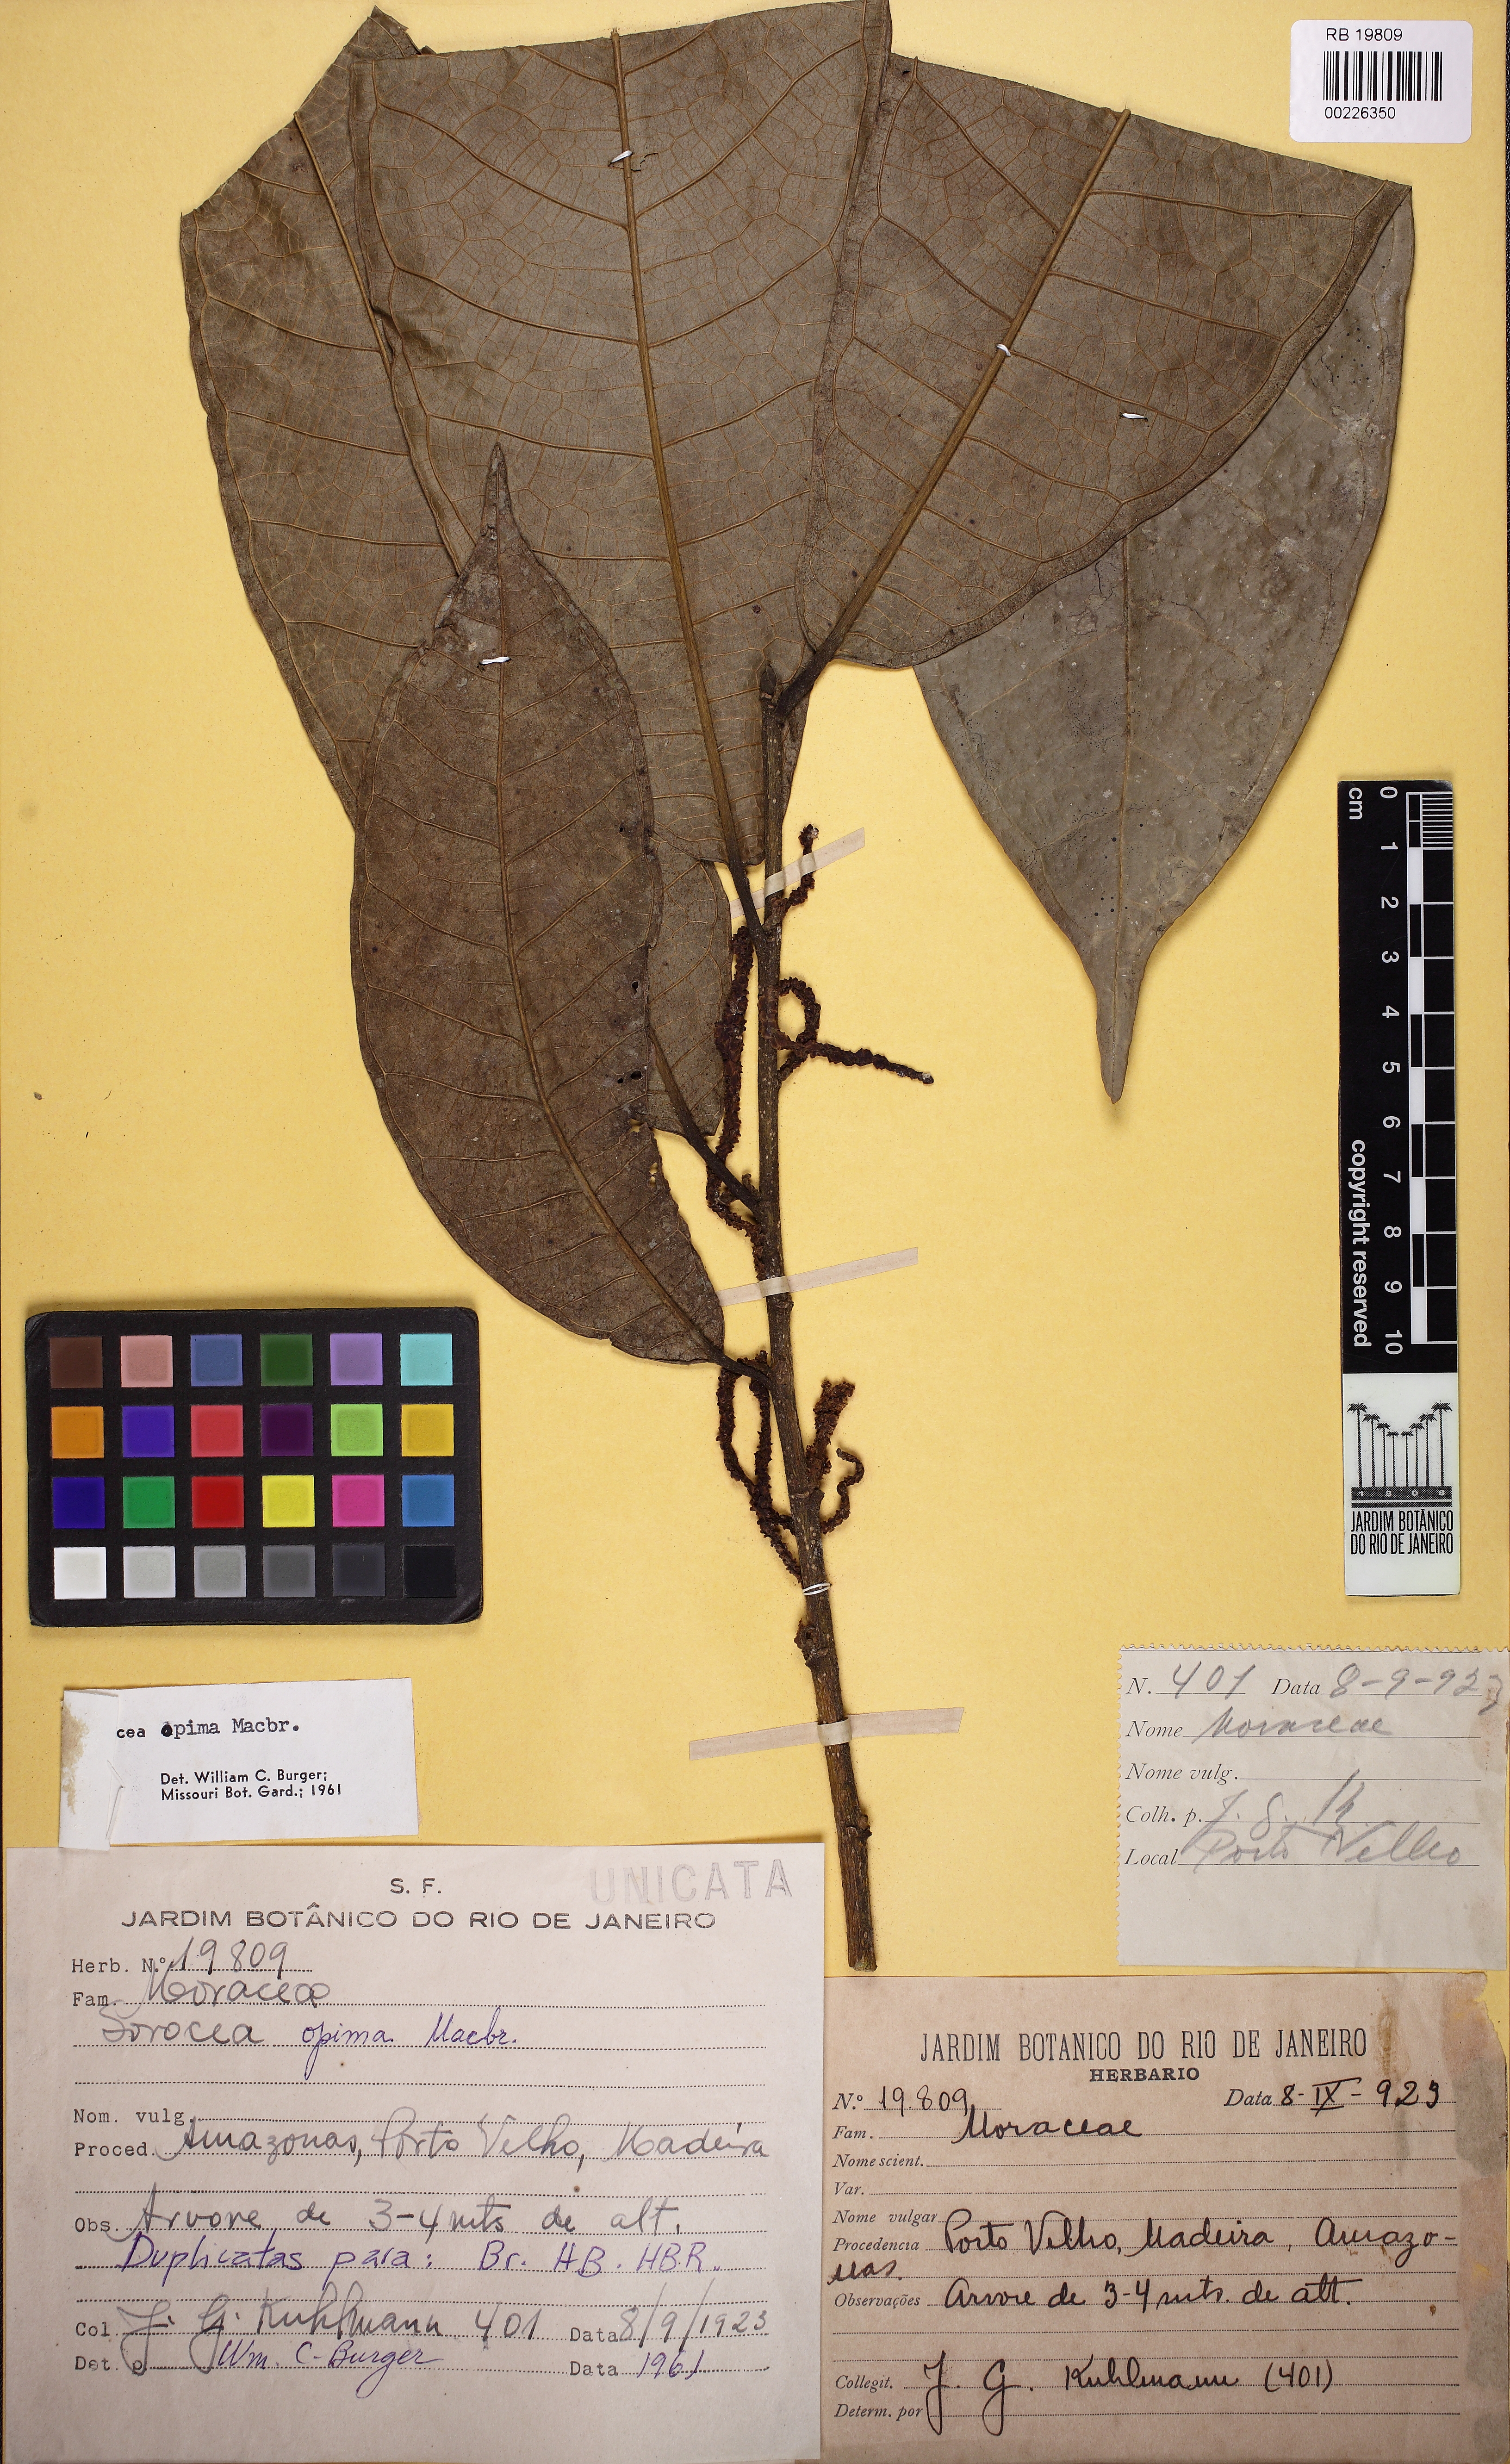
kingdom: Plantae
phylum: Tracheophyta
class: Magnoliopsida
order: Rosales
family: Moraceae
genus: Sorocea
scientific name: Sorocea pubivena
